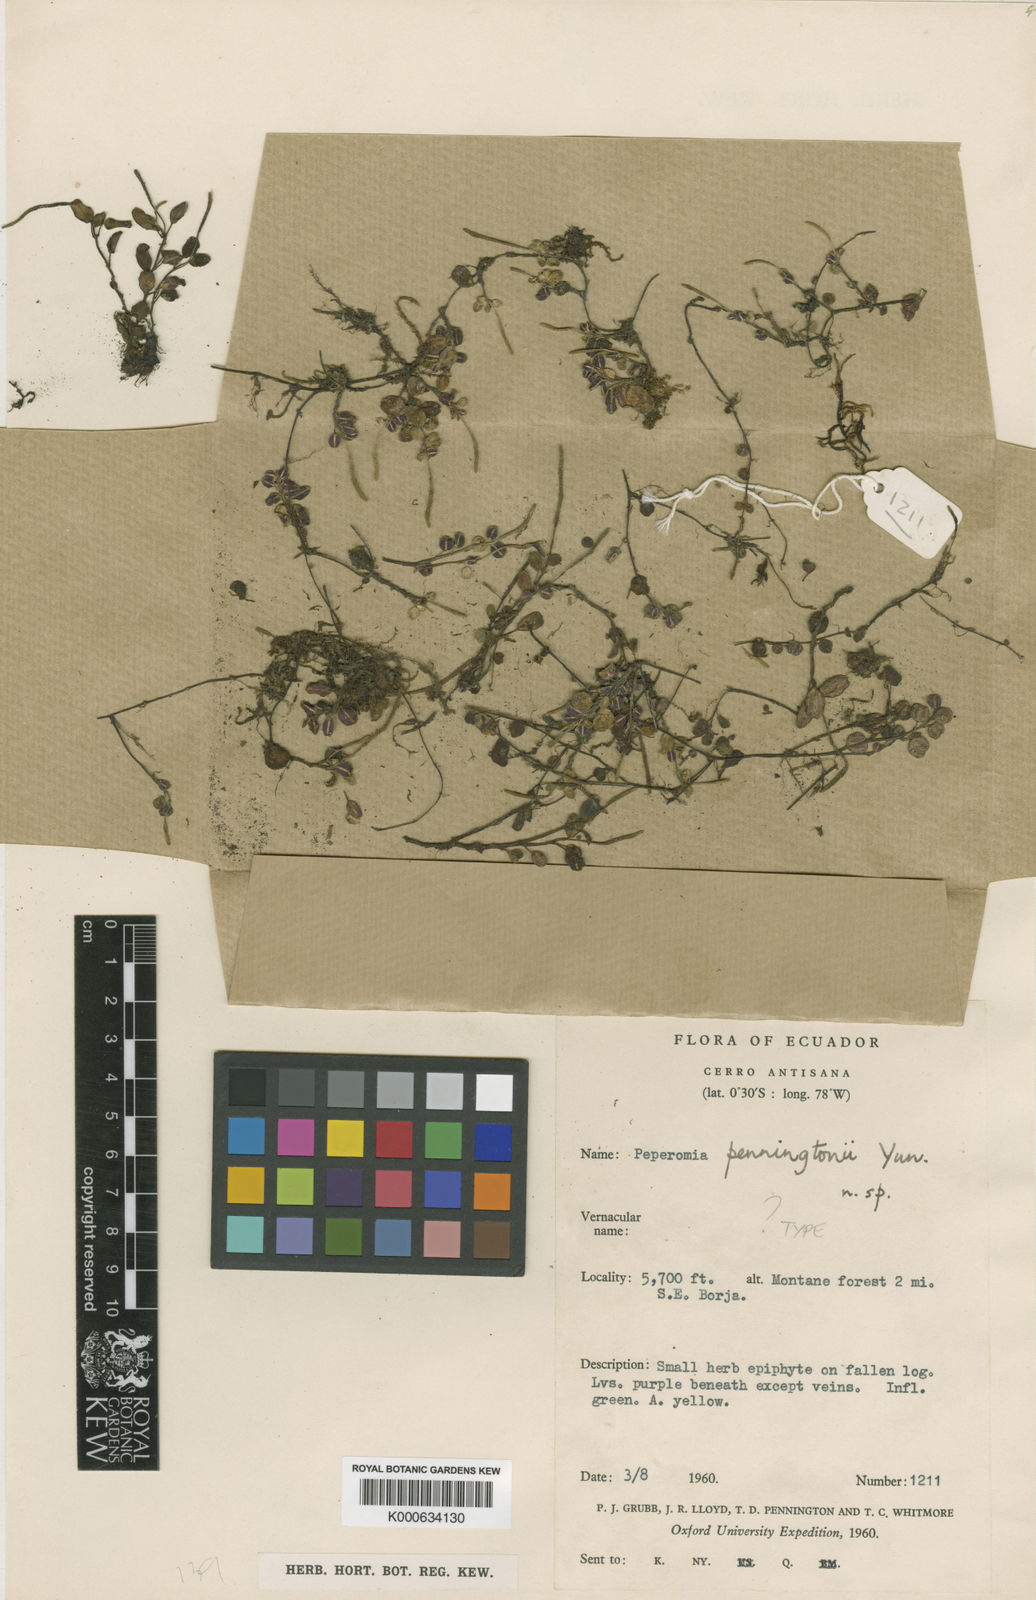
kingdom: Plantae
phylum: Tracheophyta
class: Magnoliopsida
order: Piperales
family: Piperaceae
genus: Peperomia
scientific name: Peperomia
